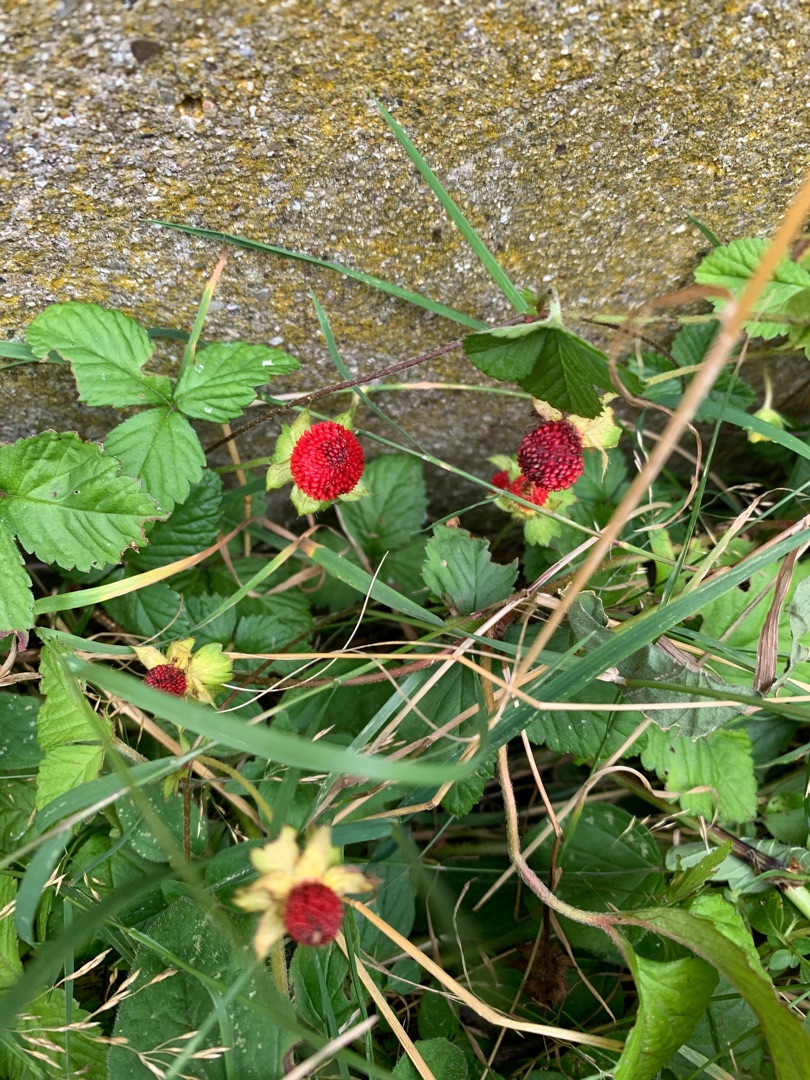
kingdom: Plantae
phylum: Tracheophyta
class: Magnoliopsida
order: Rosales
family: Rosaceae
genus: Potentilla
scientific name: Potentilla indica
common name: Indisk jordbær
